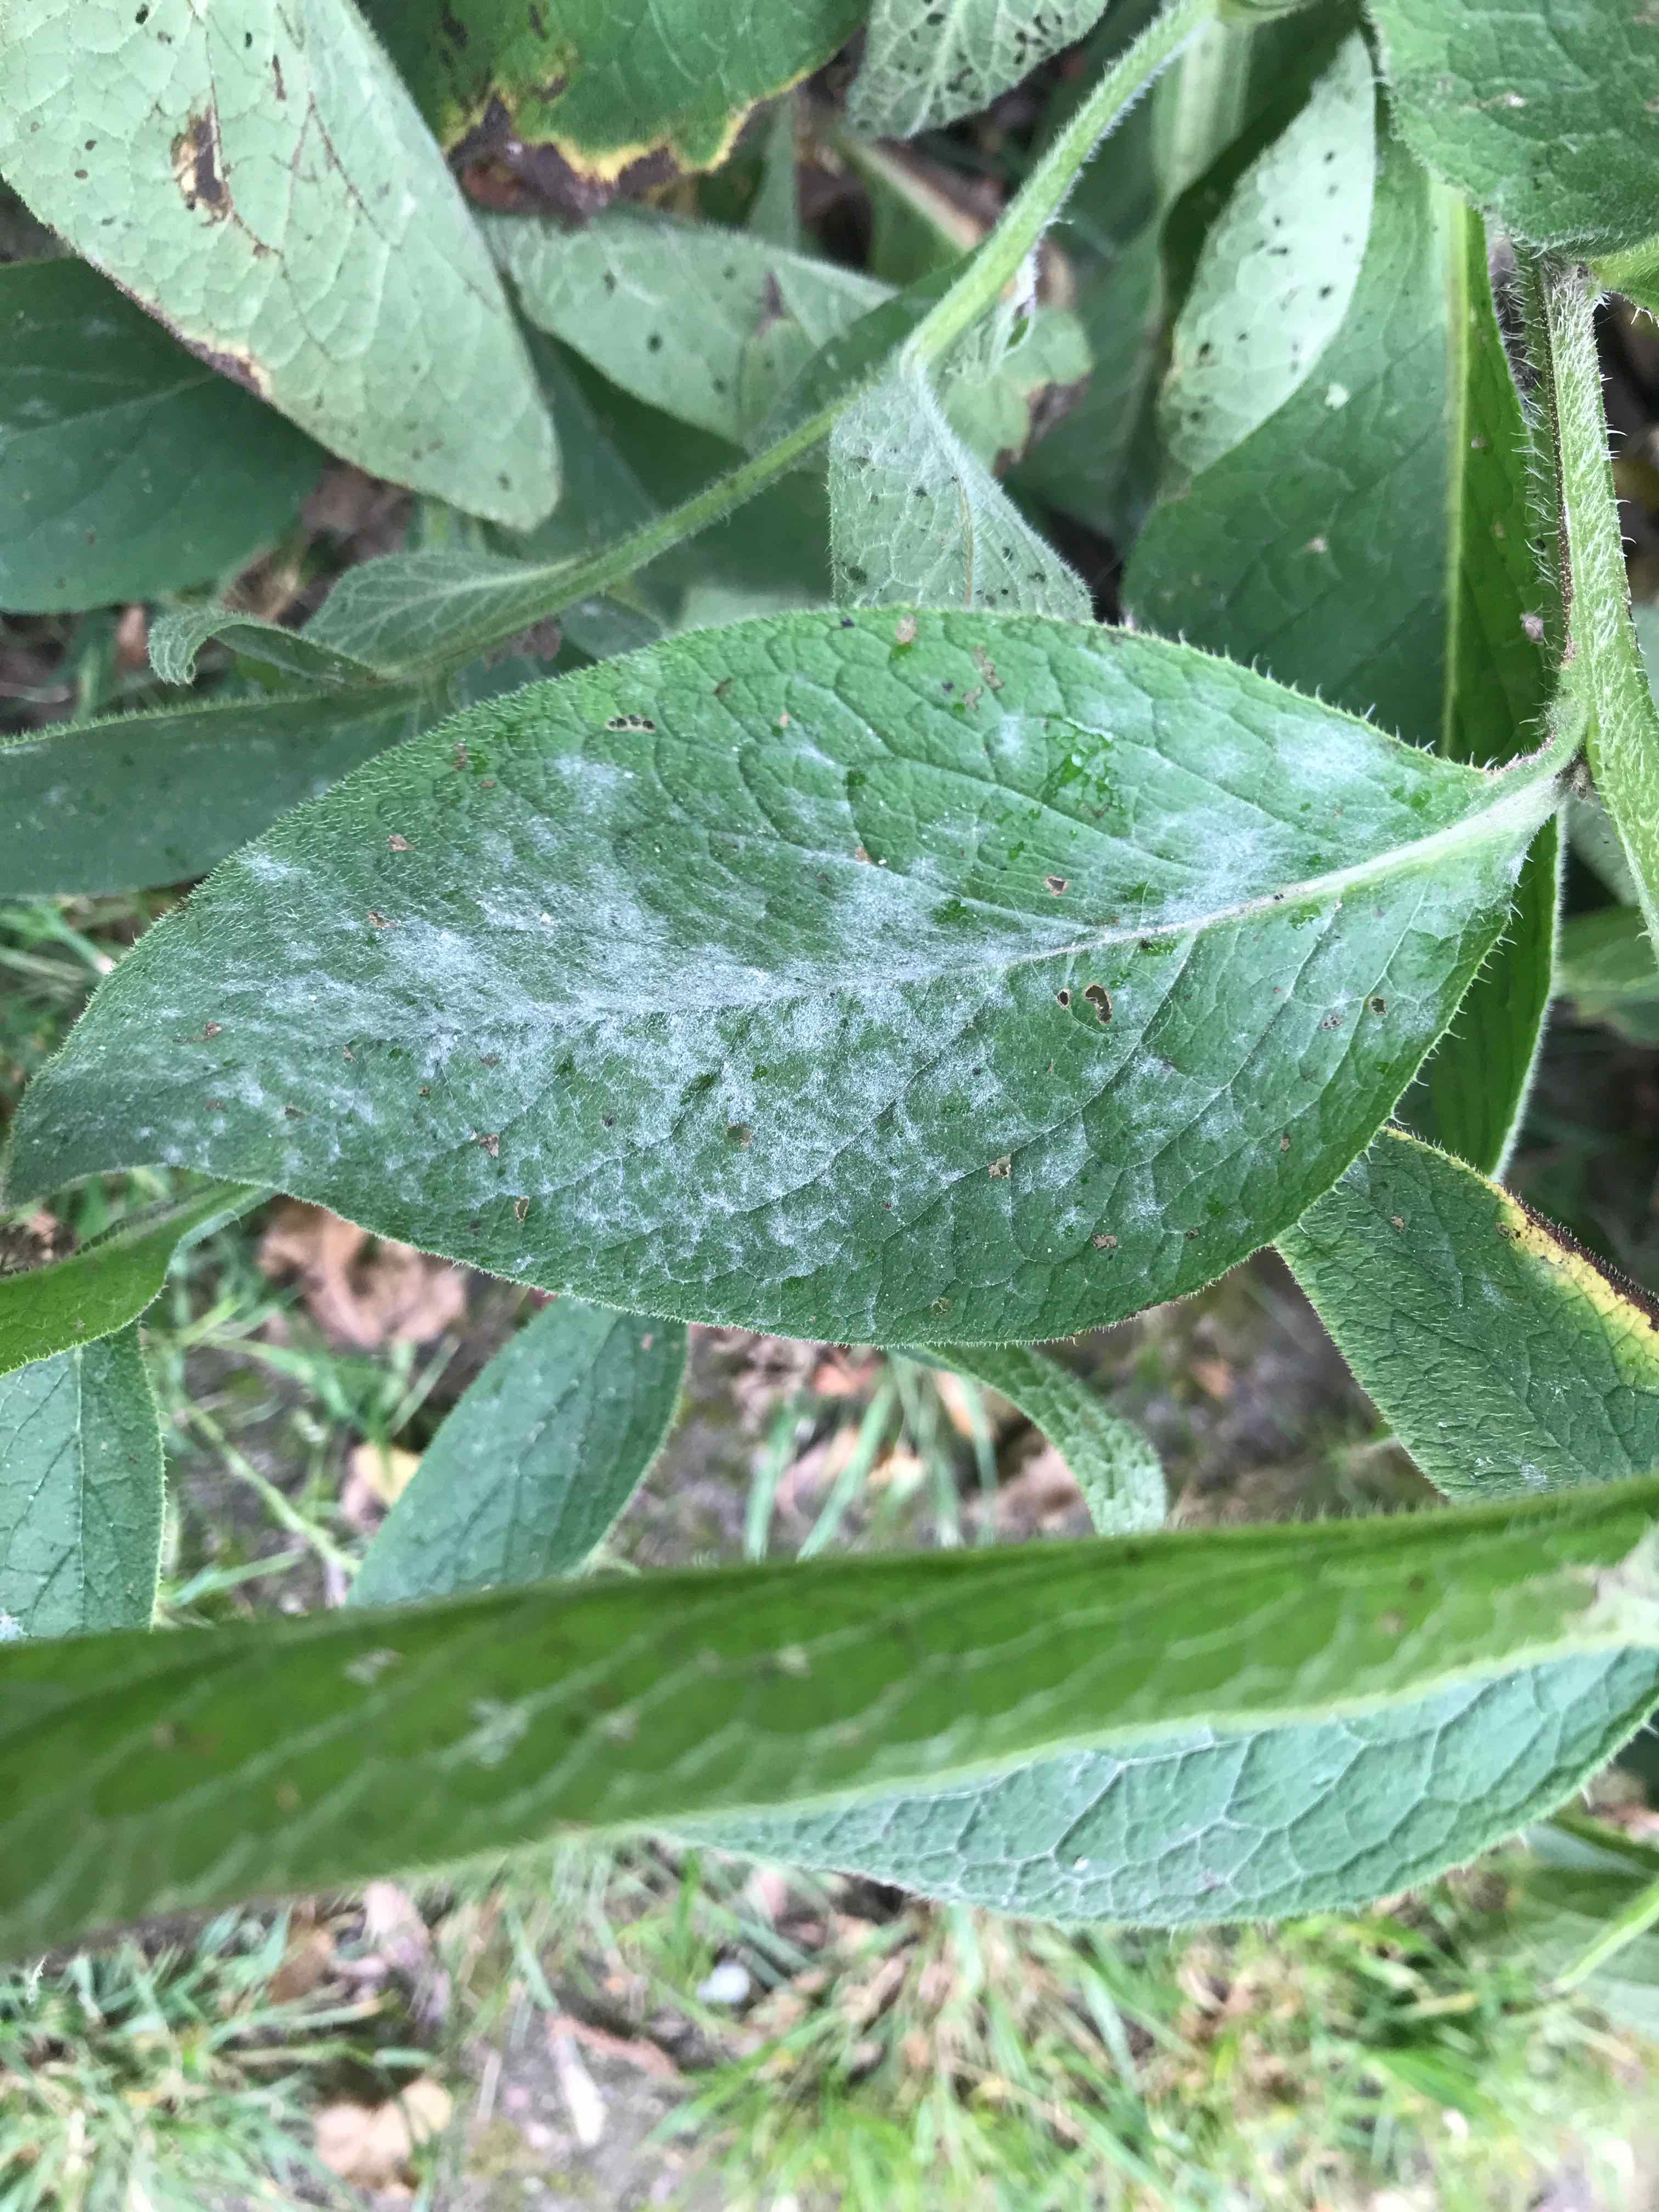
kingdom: Fungi
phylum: Ascomycota
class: Leotiomycetes
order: Helotiales
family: Erysiphaceae
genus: Golovinomyces
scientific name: Golovinomyces asperifoliorum
